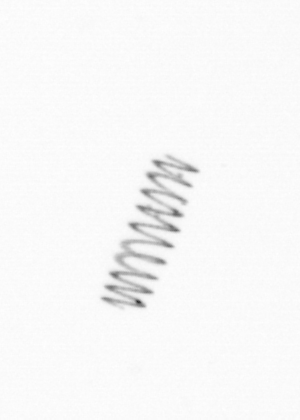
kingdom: Chromista
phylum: Ochrophyta
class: Bacillariophyceae
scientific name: Bacillariophyceae
